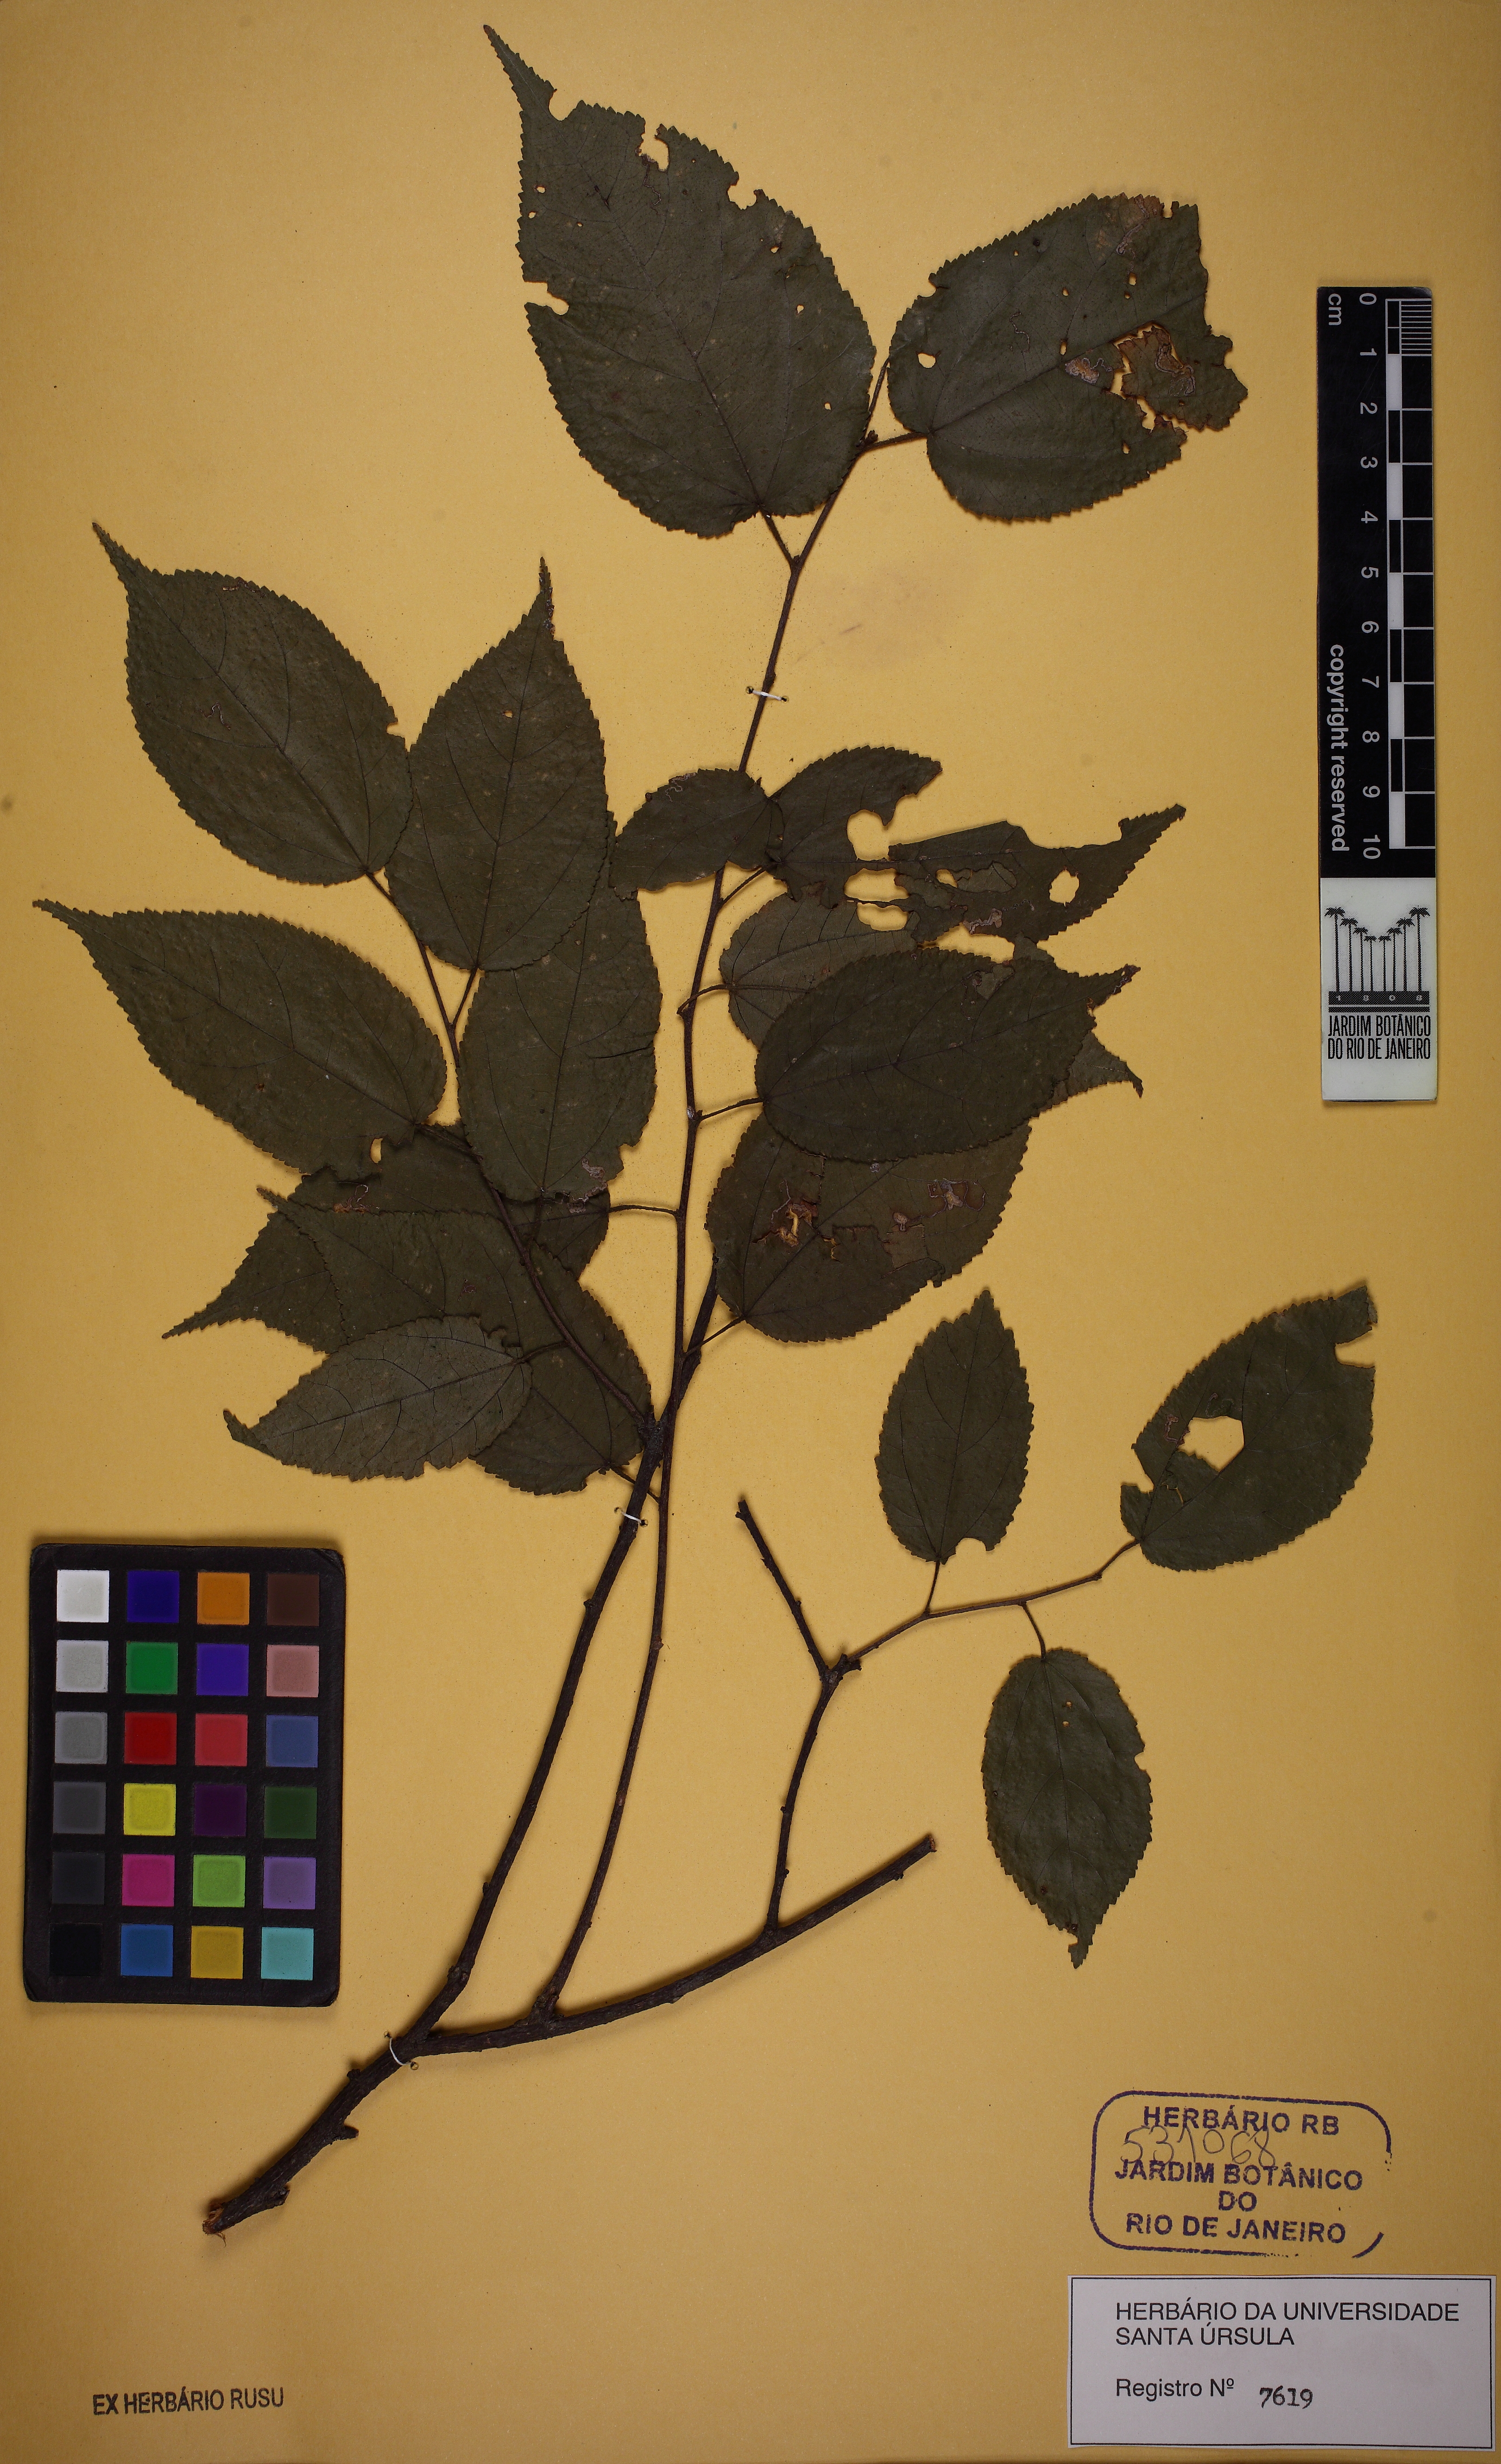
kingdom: Plantae
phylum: Tracheophyta
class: Magnoliopsida
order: Malvales
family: Malvaceae
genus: Guazuma
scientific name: Guazuma crinita
